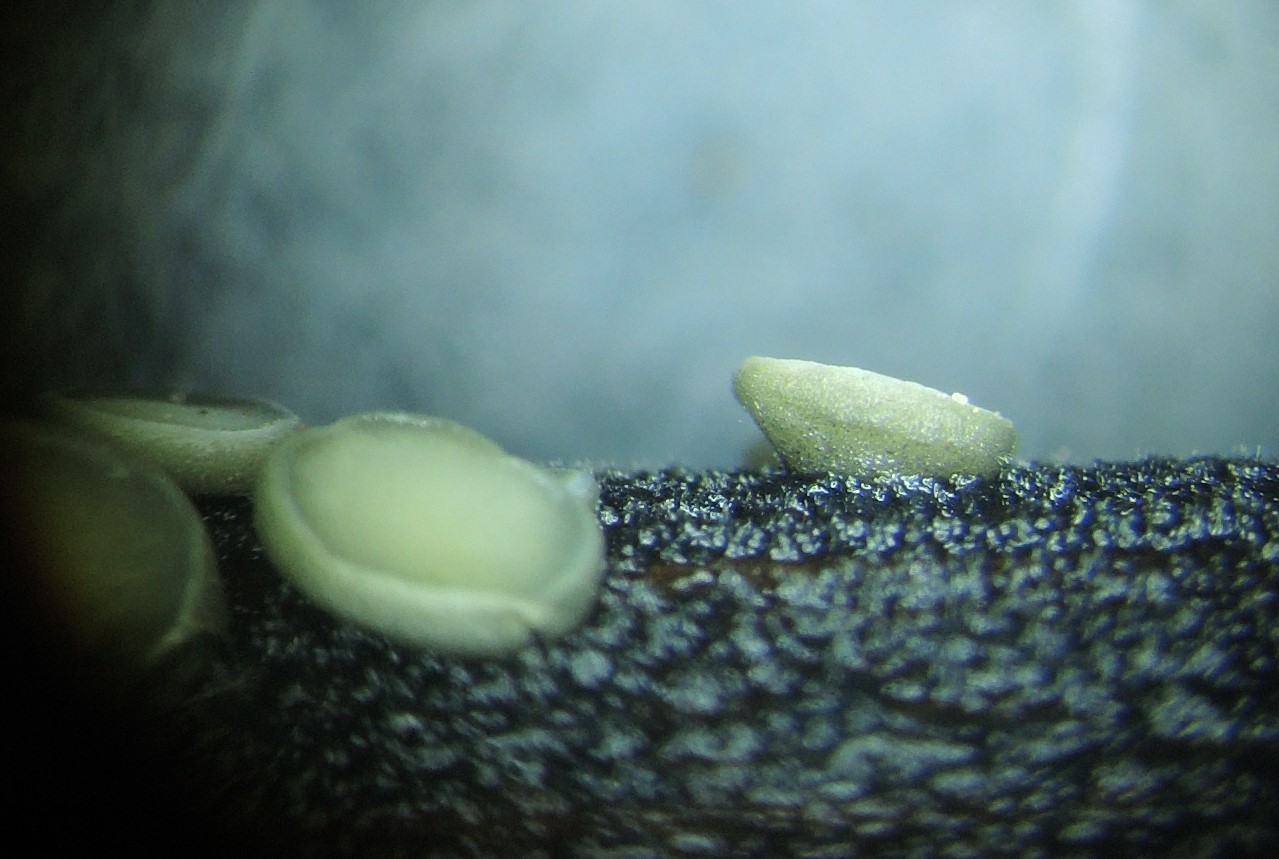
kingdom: Fungi
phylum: Ascomycota
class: Leotiomycetes
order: Helotiales
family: Mollisiaceae
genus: Trichobelonium
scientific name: Trichobelonium kneiffii
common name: tagrør-gråskive
